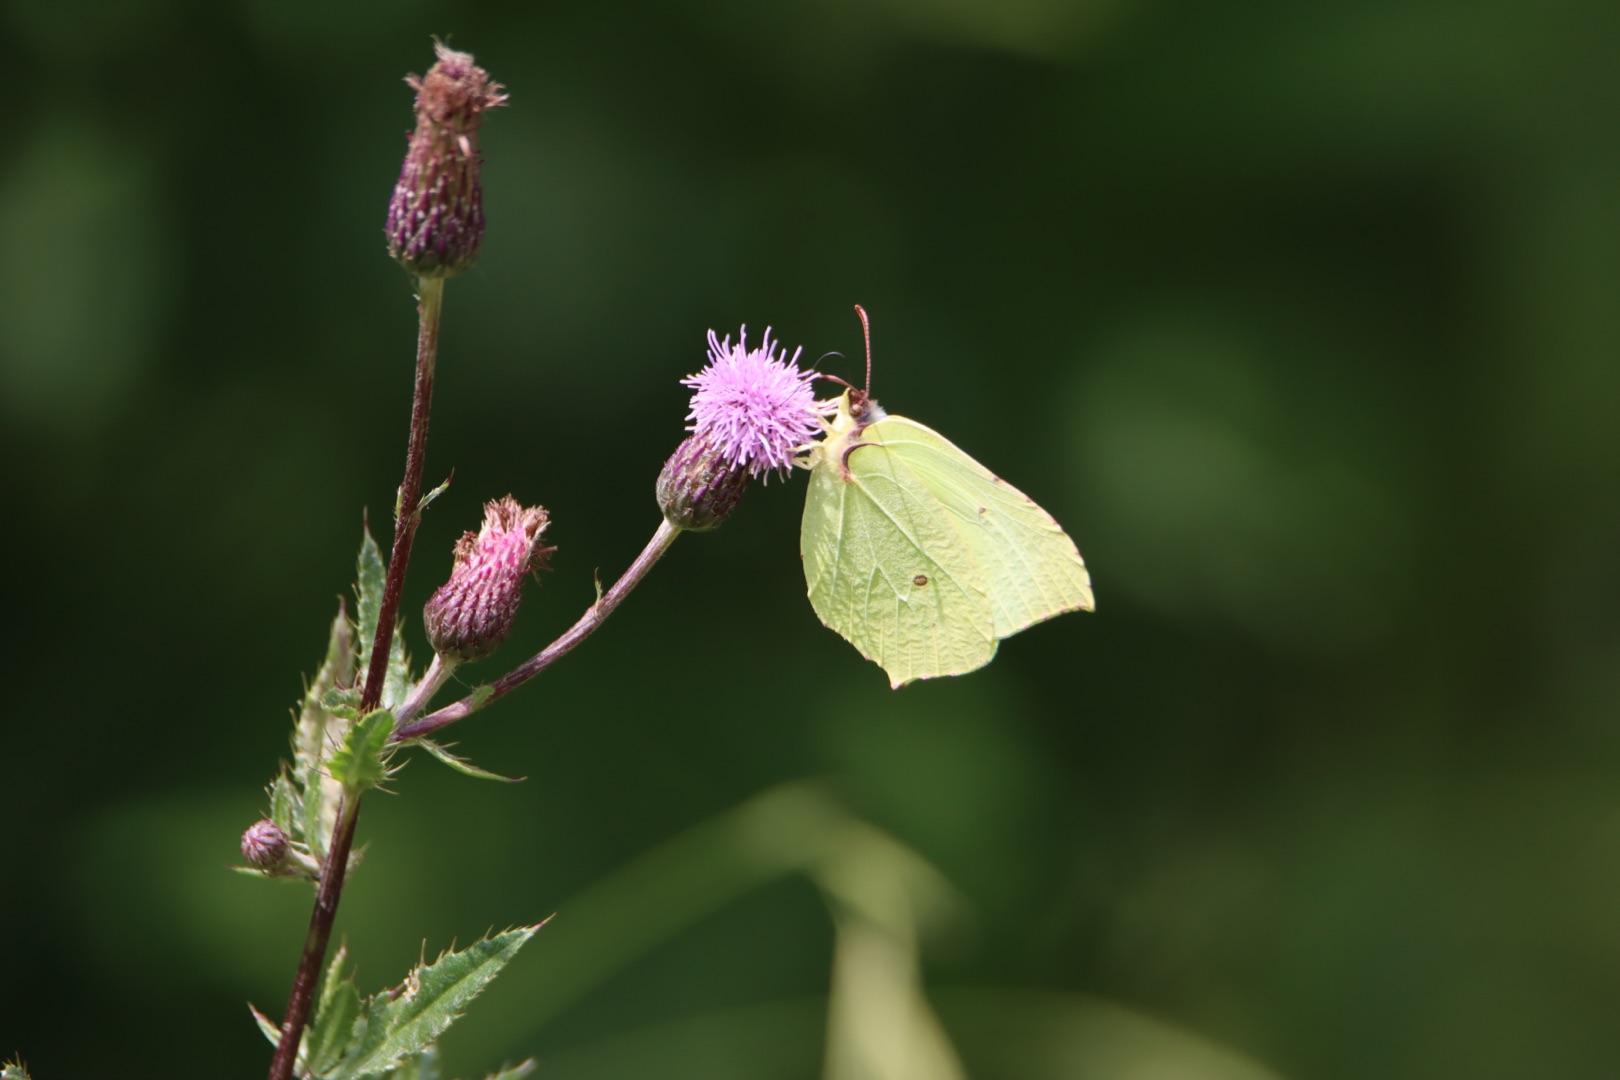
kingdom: Animalia
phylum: Arthropoda
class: Insecta
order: Lepidoptera
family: Pieridae
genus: Gonepteryx
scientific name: Gonepteryx rhamni
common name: Citronsommerfugl
